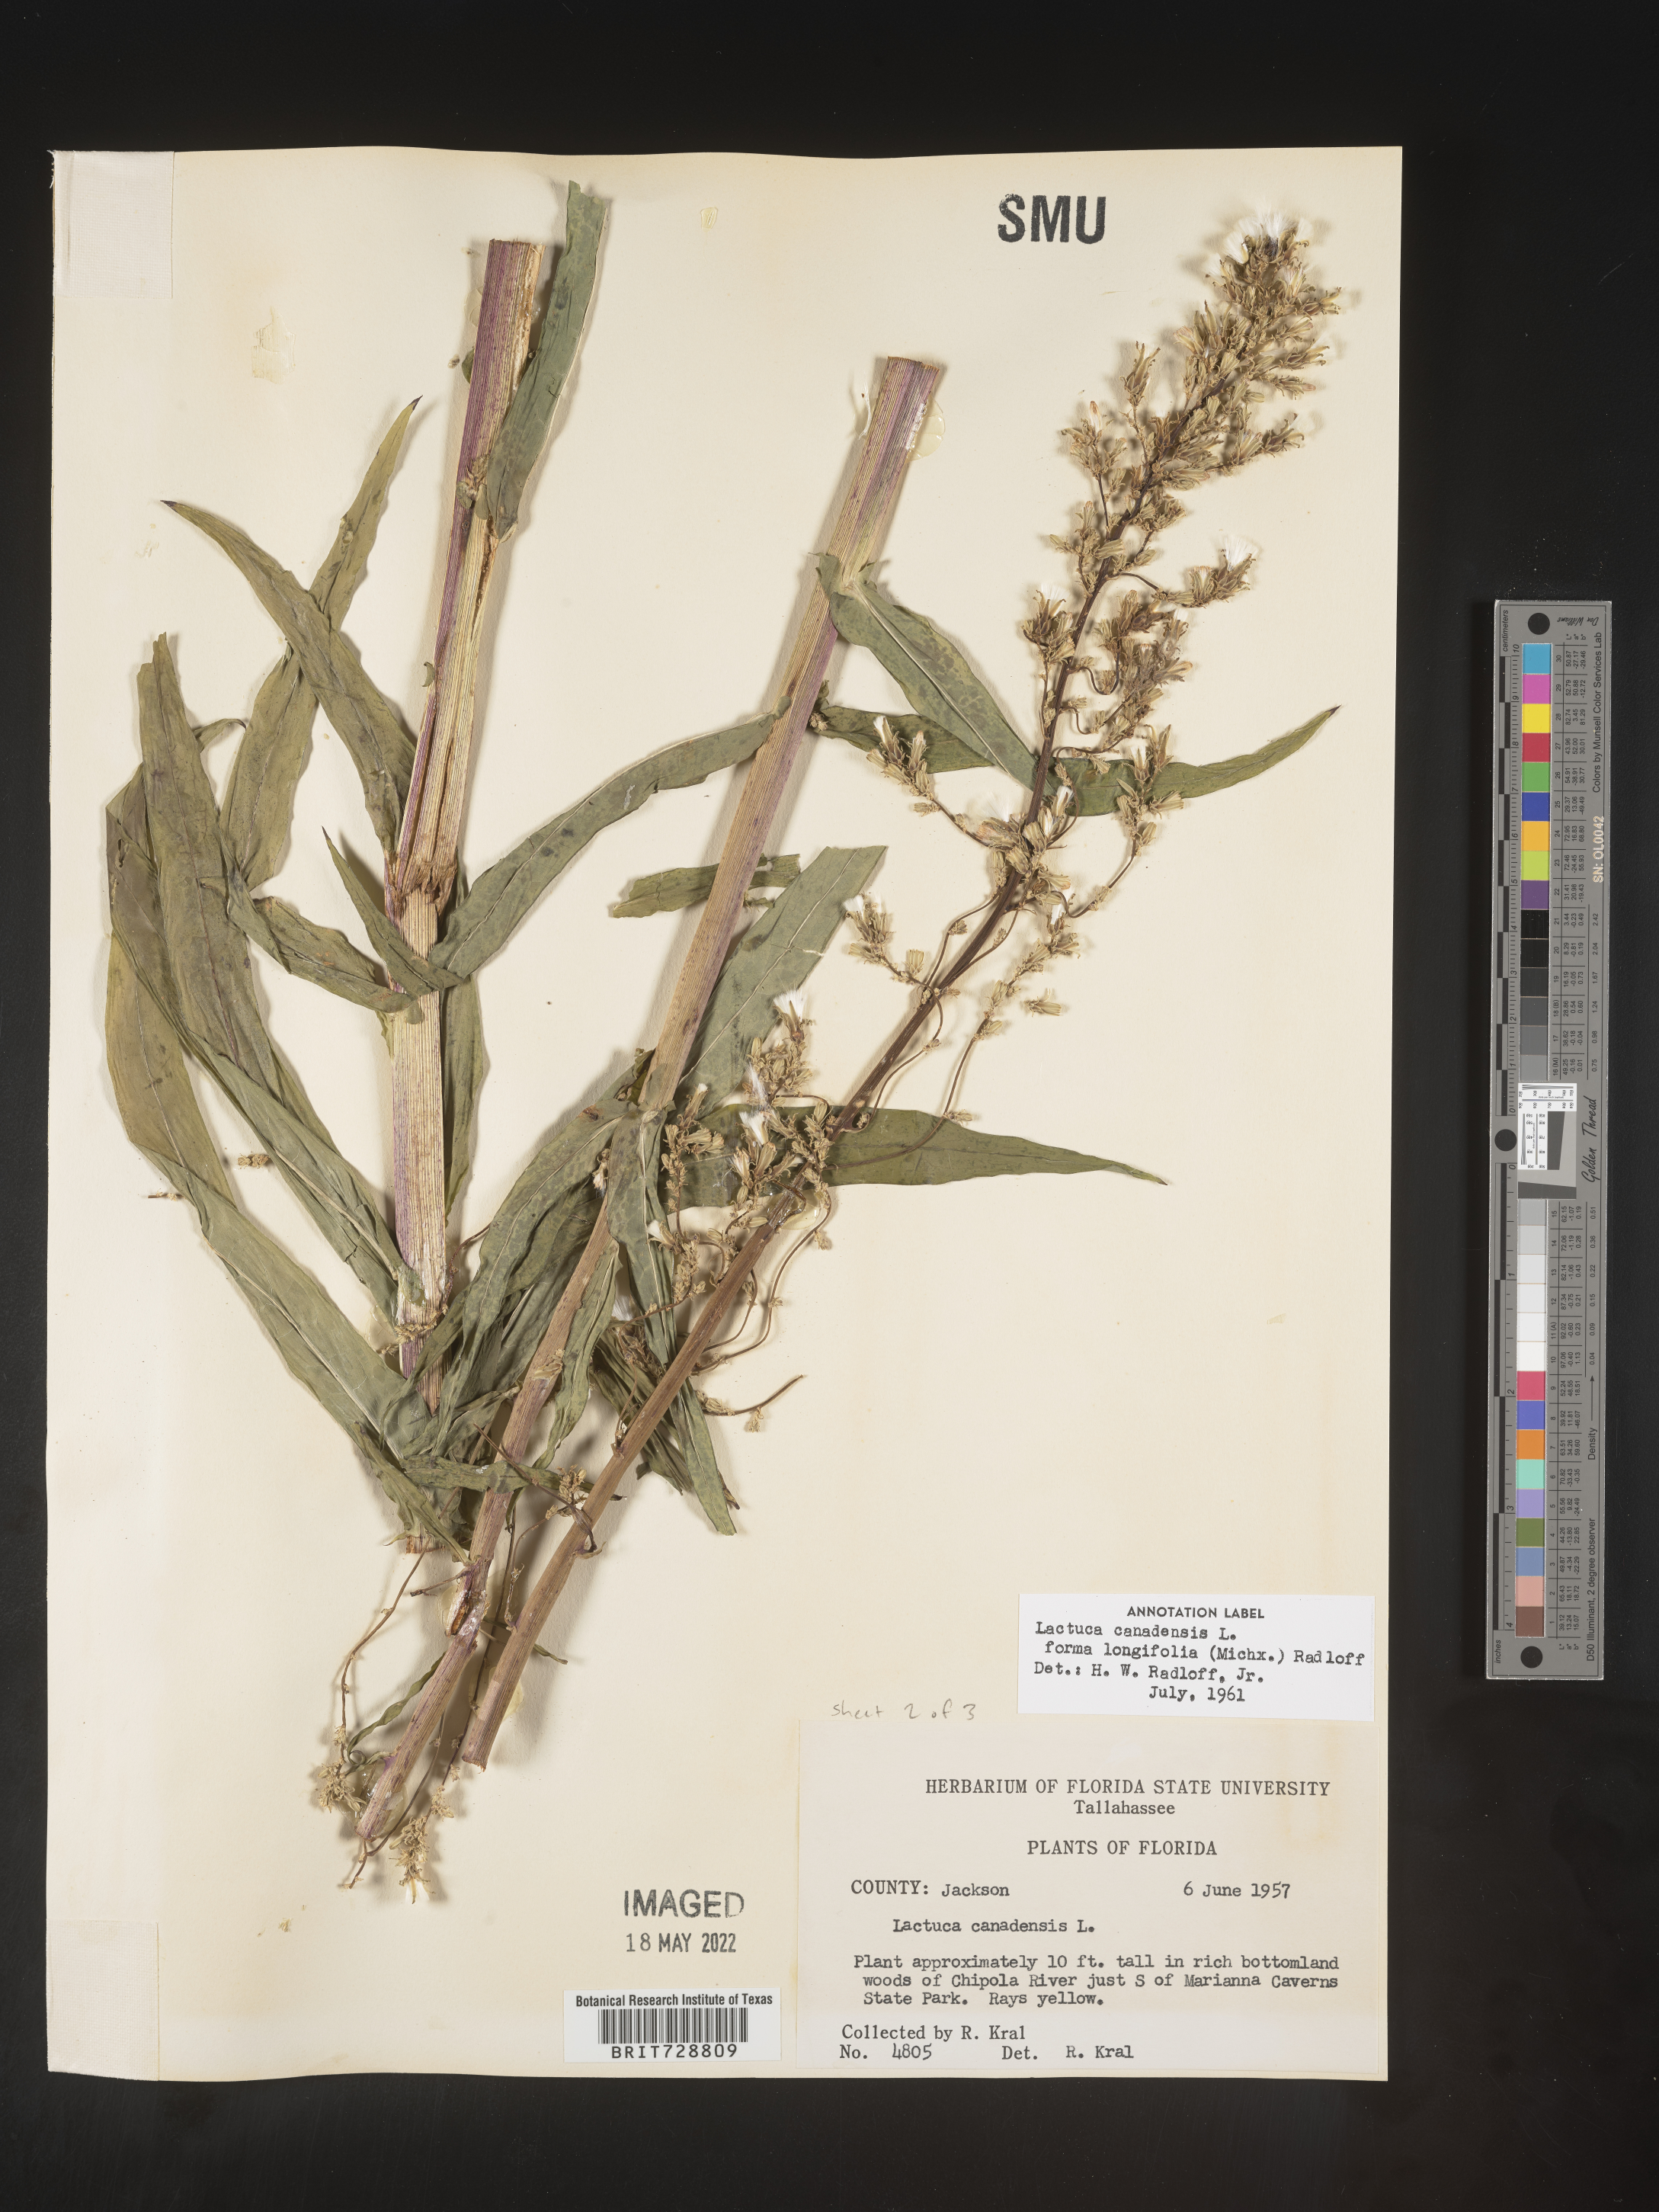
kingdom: Plantae
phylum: Tracheophyta
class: Magnoliopsida
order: Asterales
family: Asteraceae
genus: Lactuca
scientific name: Lactuca canadensis
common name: Canada lettuce
